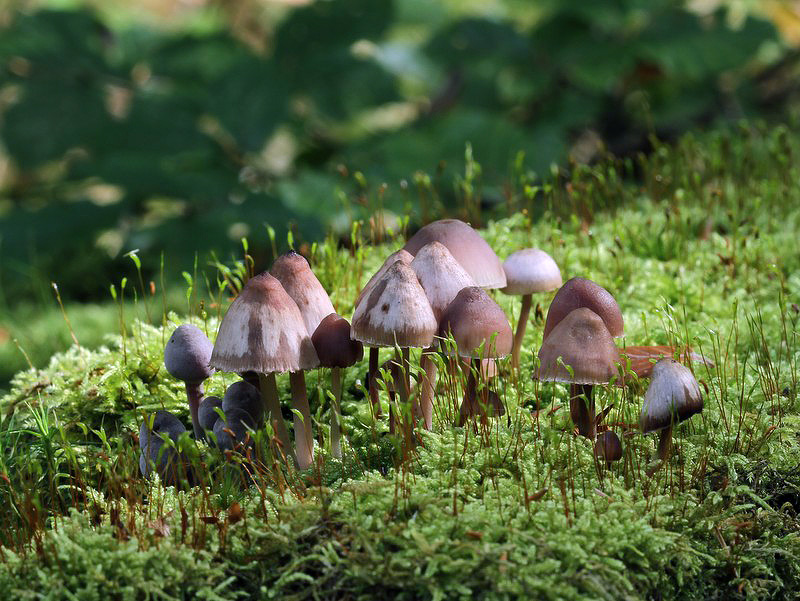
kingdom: Fungi
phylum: Basidiomycota
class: Agaricomycetes
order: Agaricales
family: Mycenaceae
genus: Mycena
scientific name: Mycena haematopus
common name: blødende huesvamp
